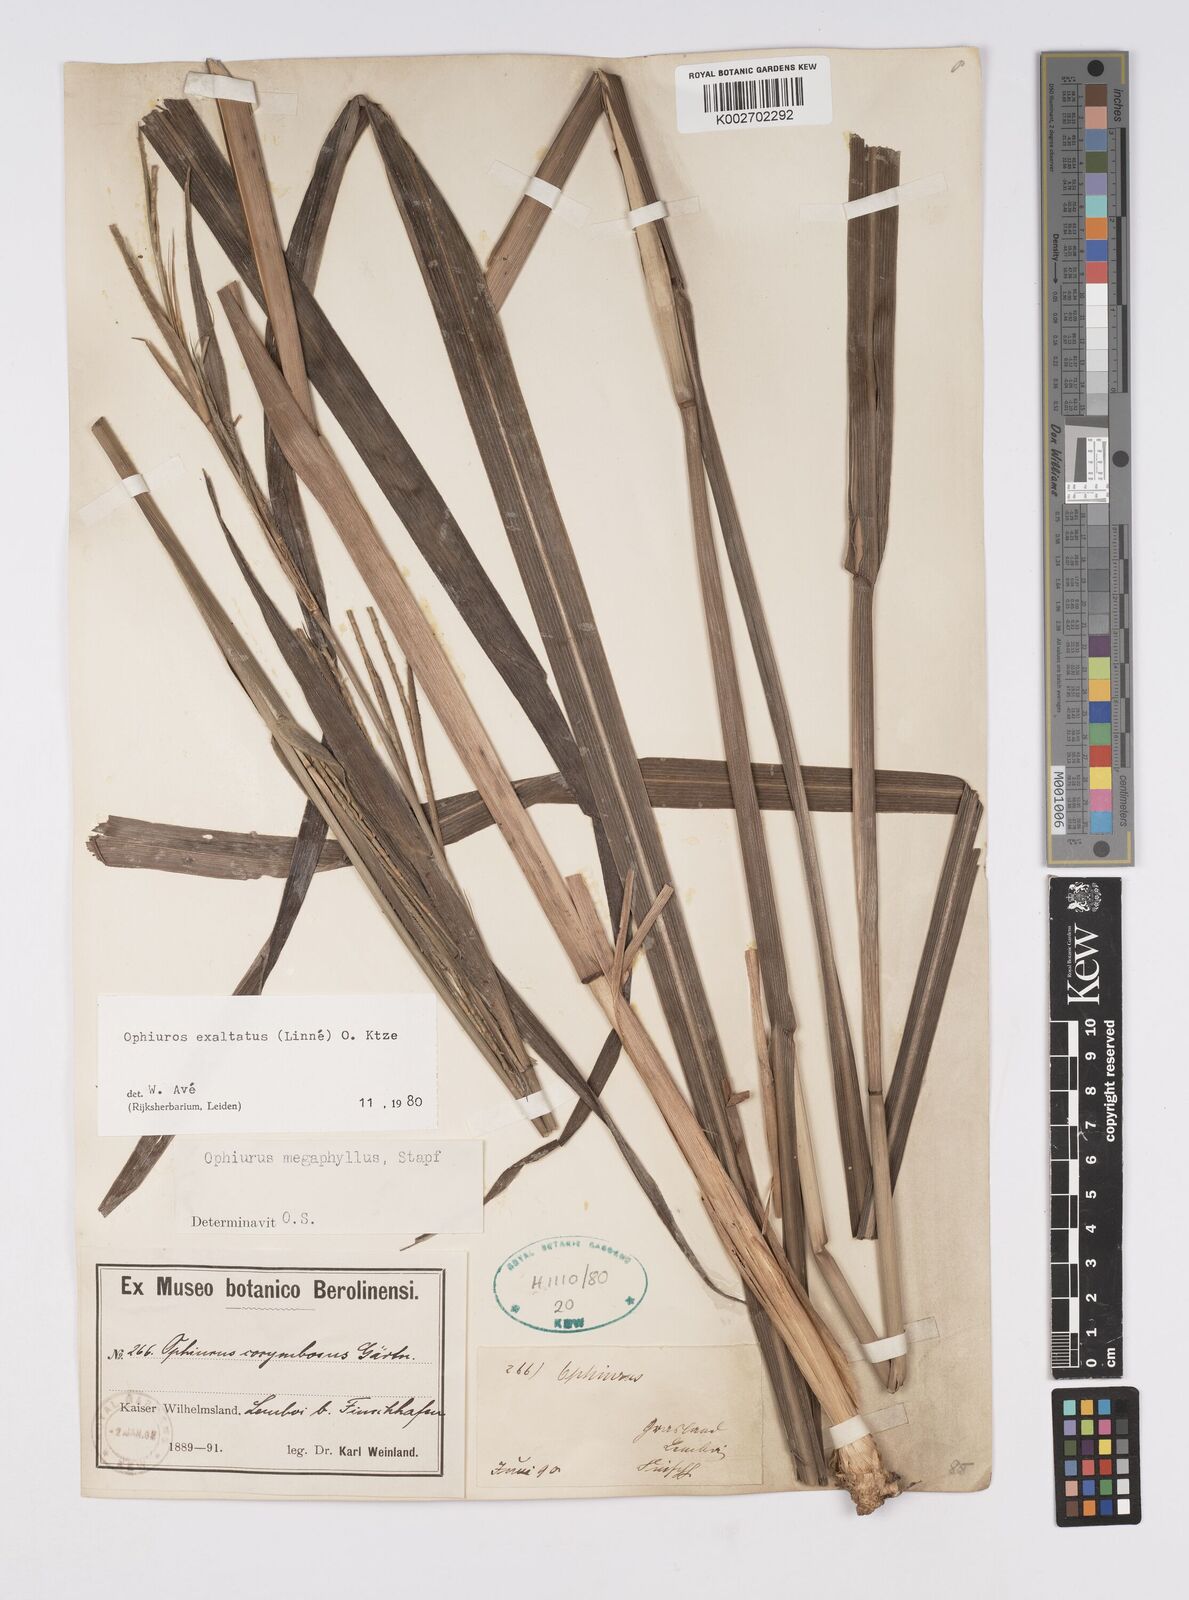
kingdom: Plantae
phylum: Tracheophyta
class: Liliopsida
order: Poales
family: Poaceae
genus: Ophiuros
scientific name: Ophiuros megaphyllus
